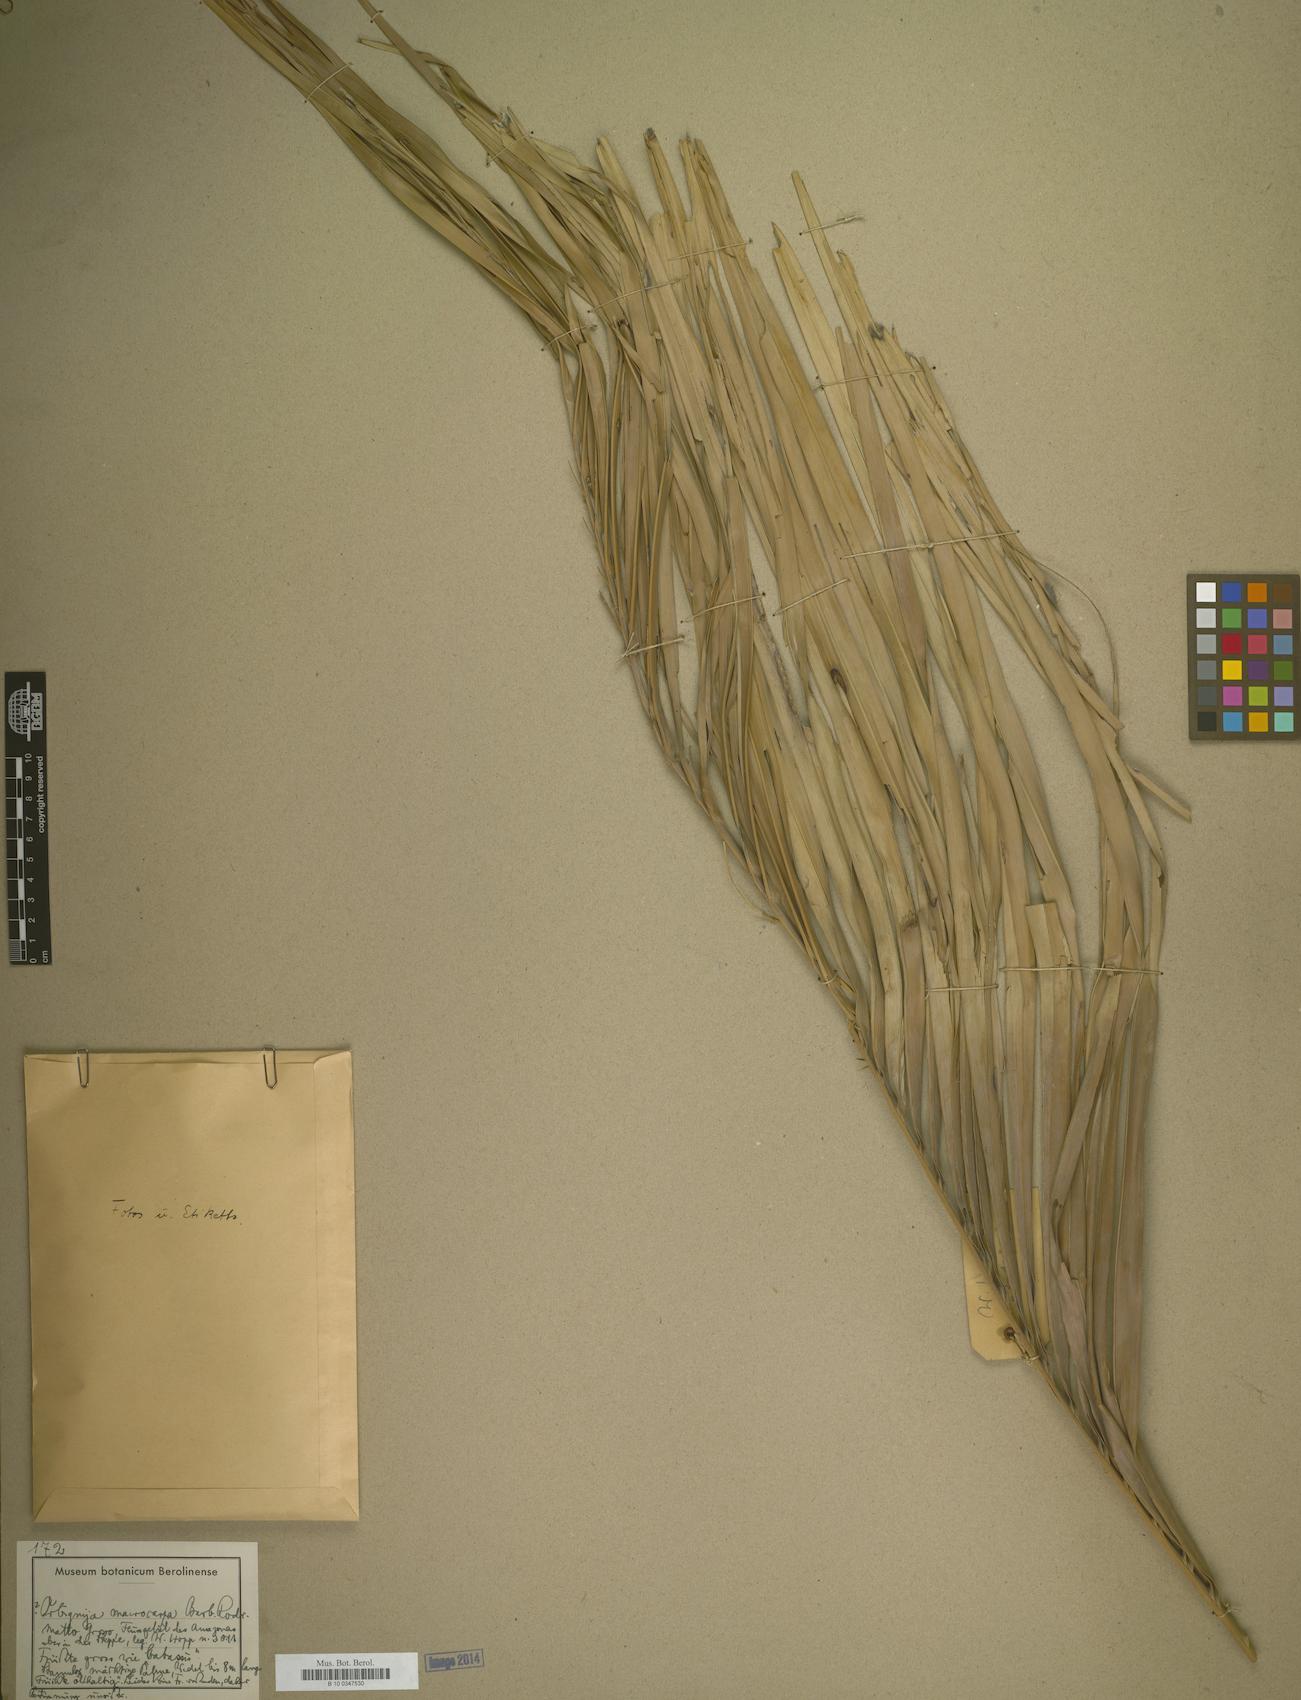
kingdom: Plantae
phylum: Tracheophyta
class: Liliopsida
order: Arecales
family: Arecaceae
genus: Attalea
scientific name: Attalea eichleri
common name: Large-fruit yagua palm
